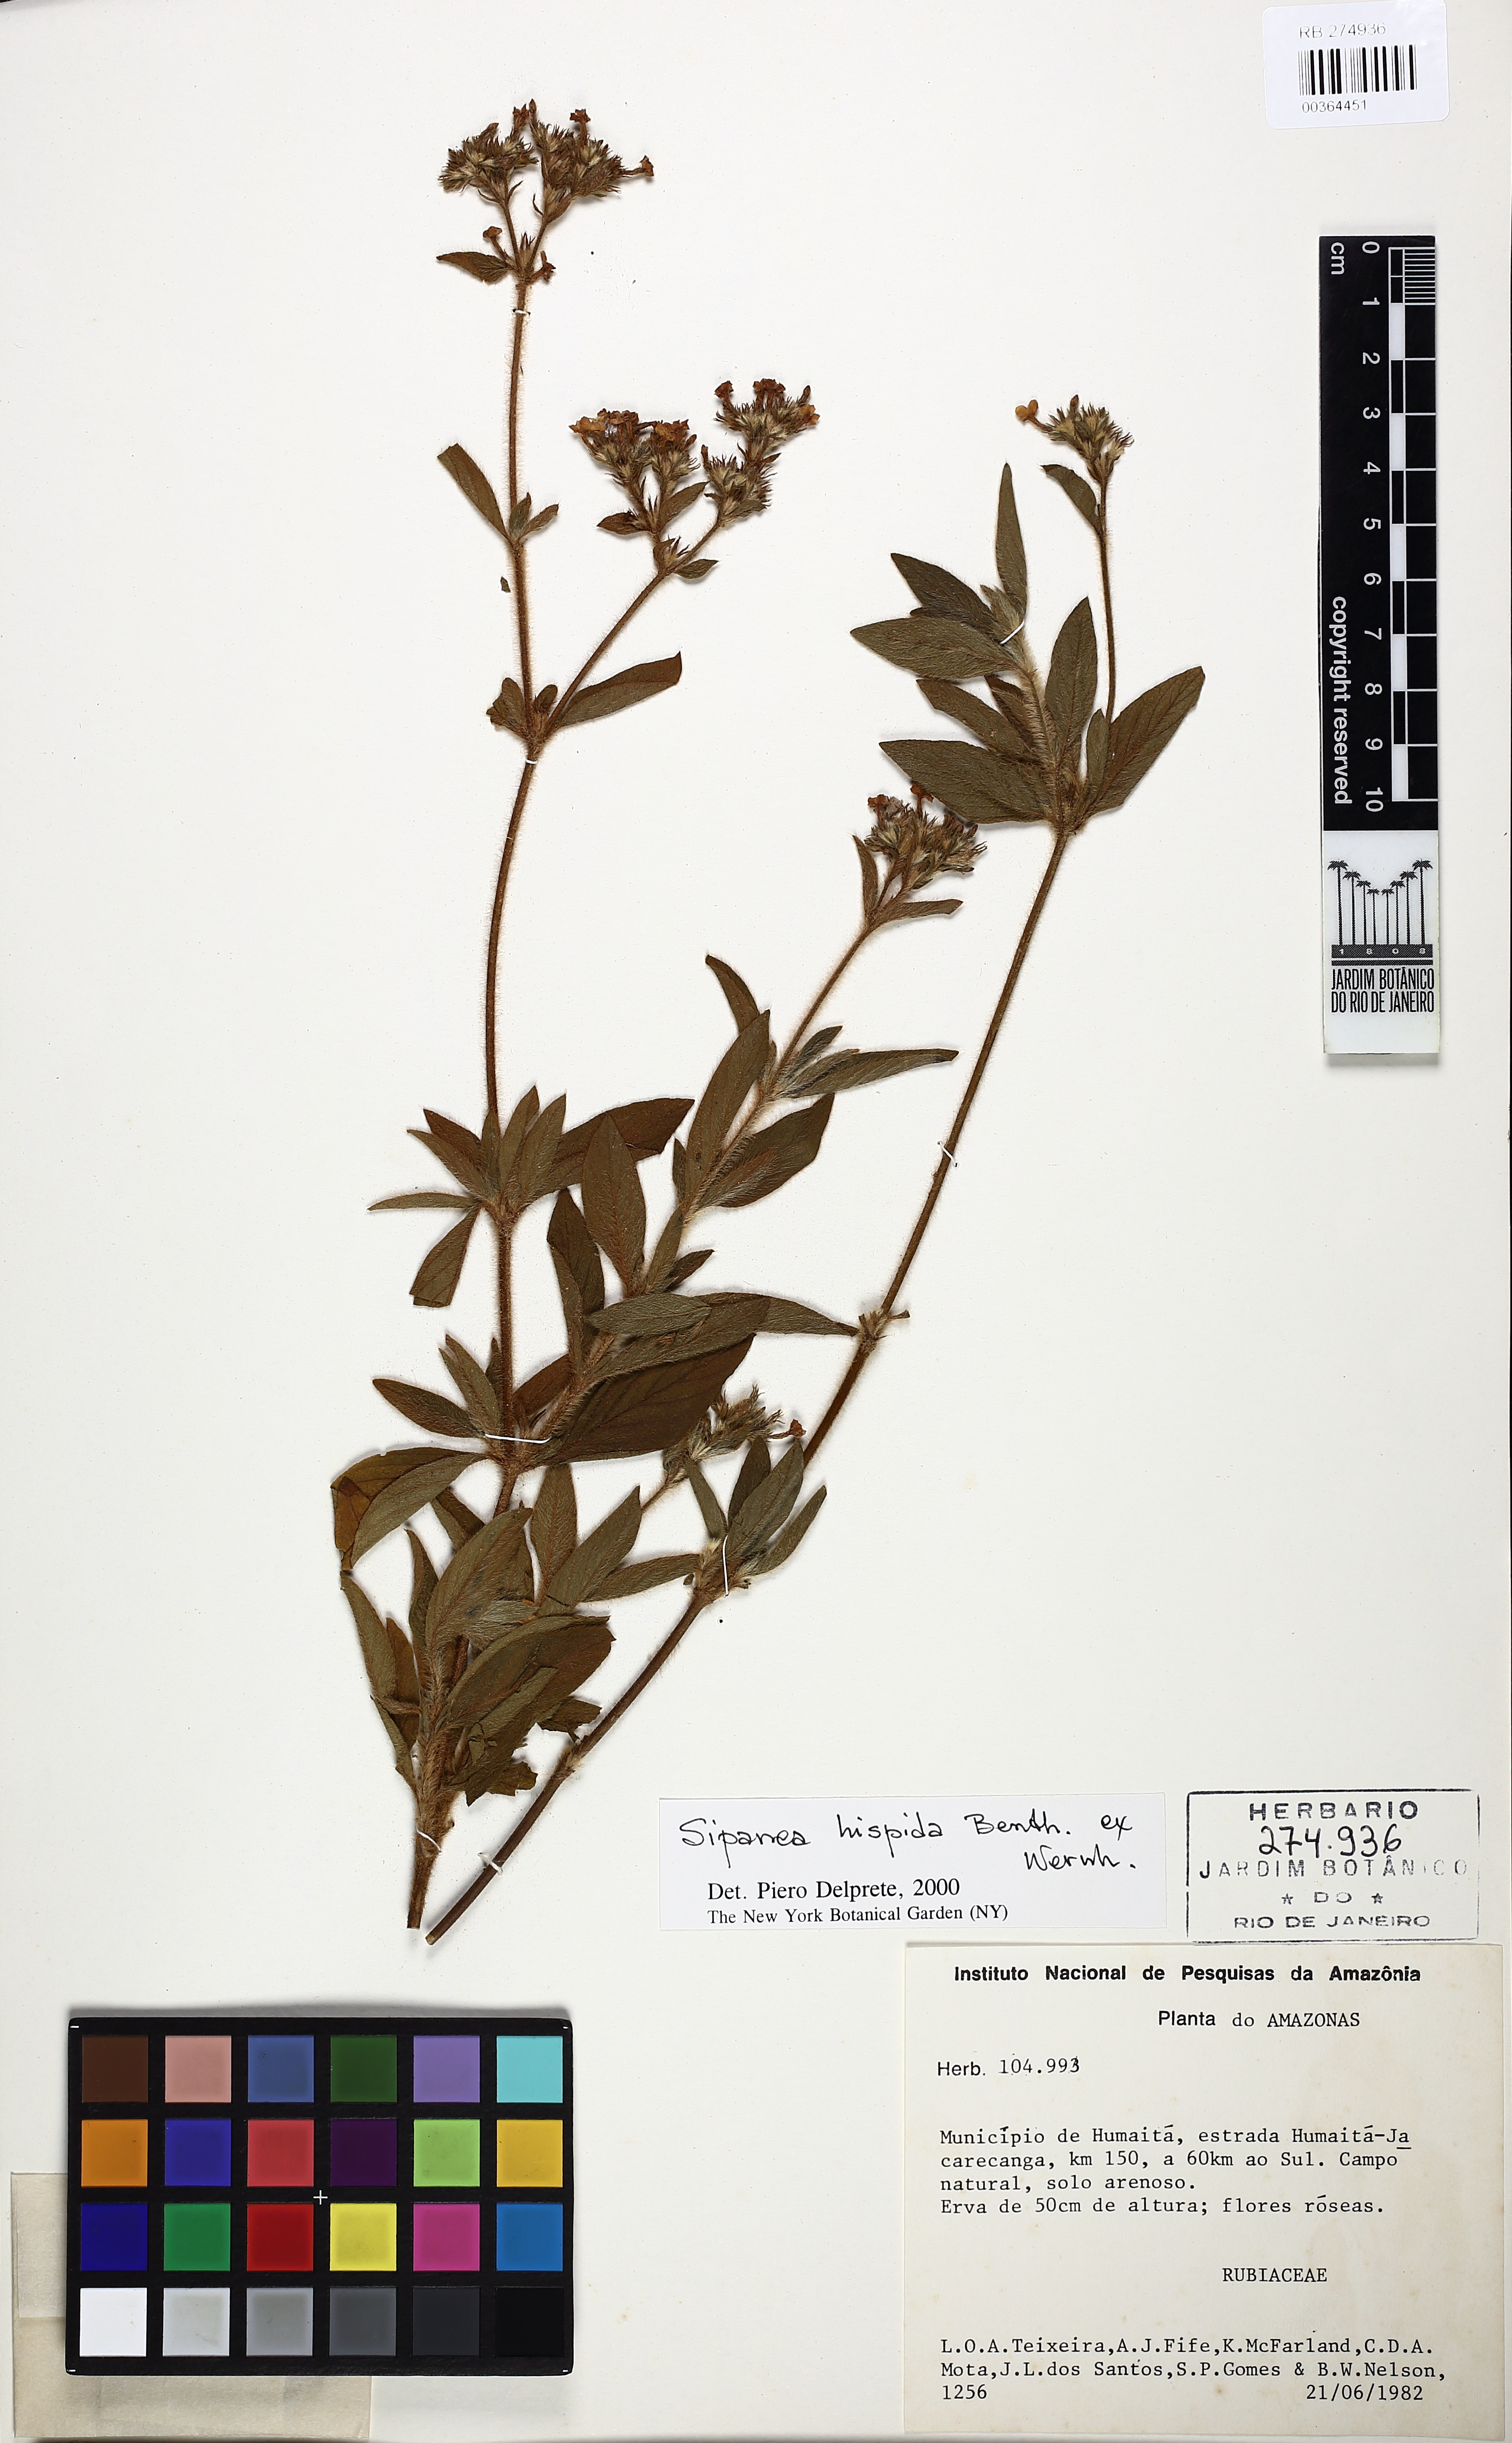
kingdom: Plantae
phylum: Tracheophyta
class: Magnoliopsida
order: Gentianales
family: Rubiaceae
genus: Sipanea
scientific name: Sipanea hispida
